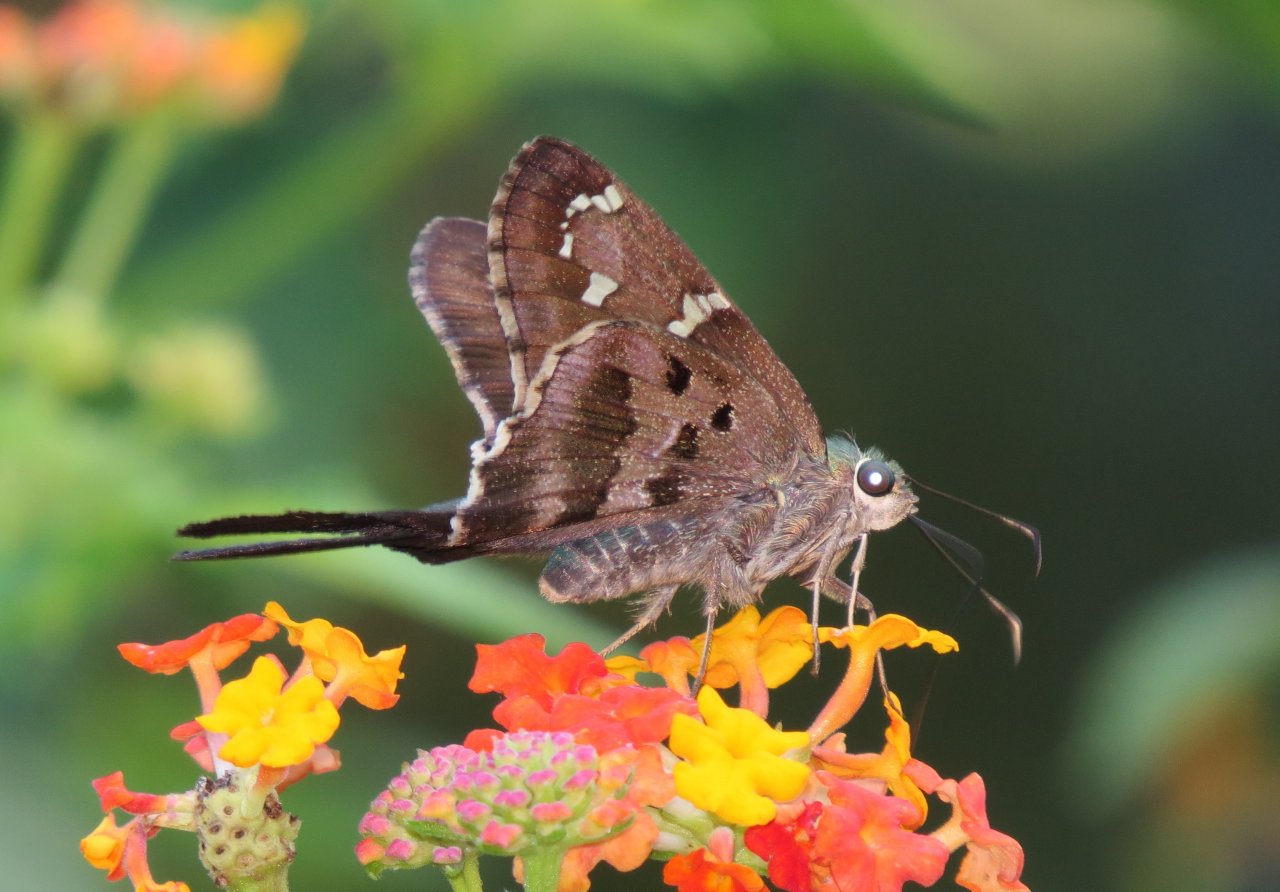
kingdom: Animalia
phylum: Arthropoda
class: Insecta
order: Lepidoptera
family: Hesperiidae
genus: Urbanus
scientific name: Urbanus proteus
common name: Long-tailed Skipper
